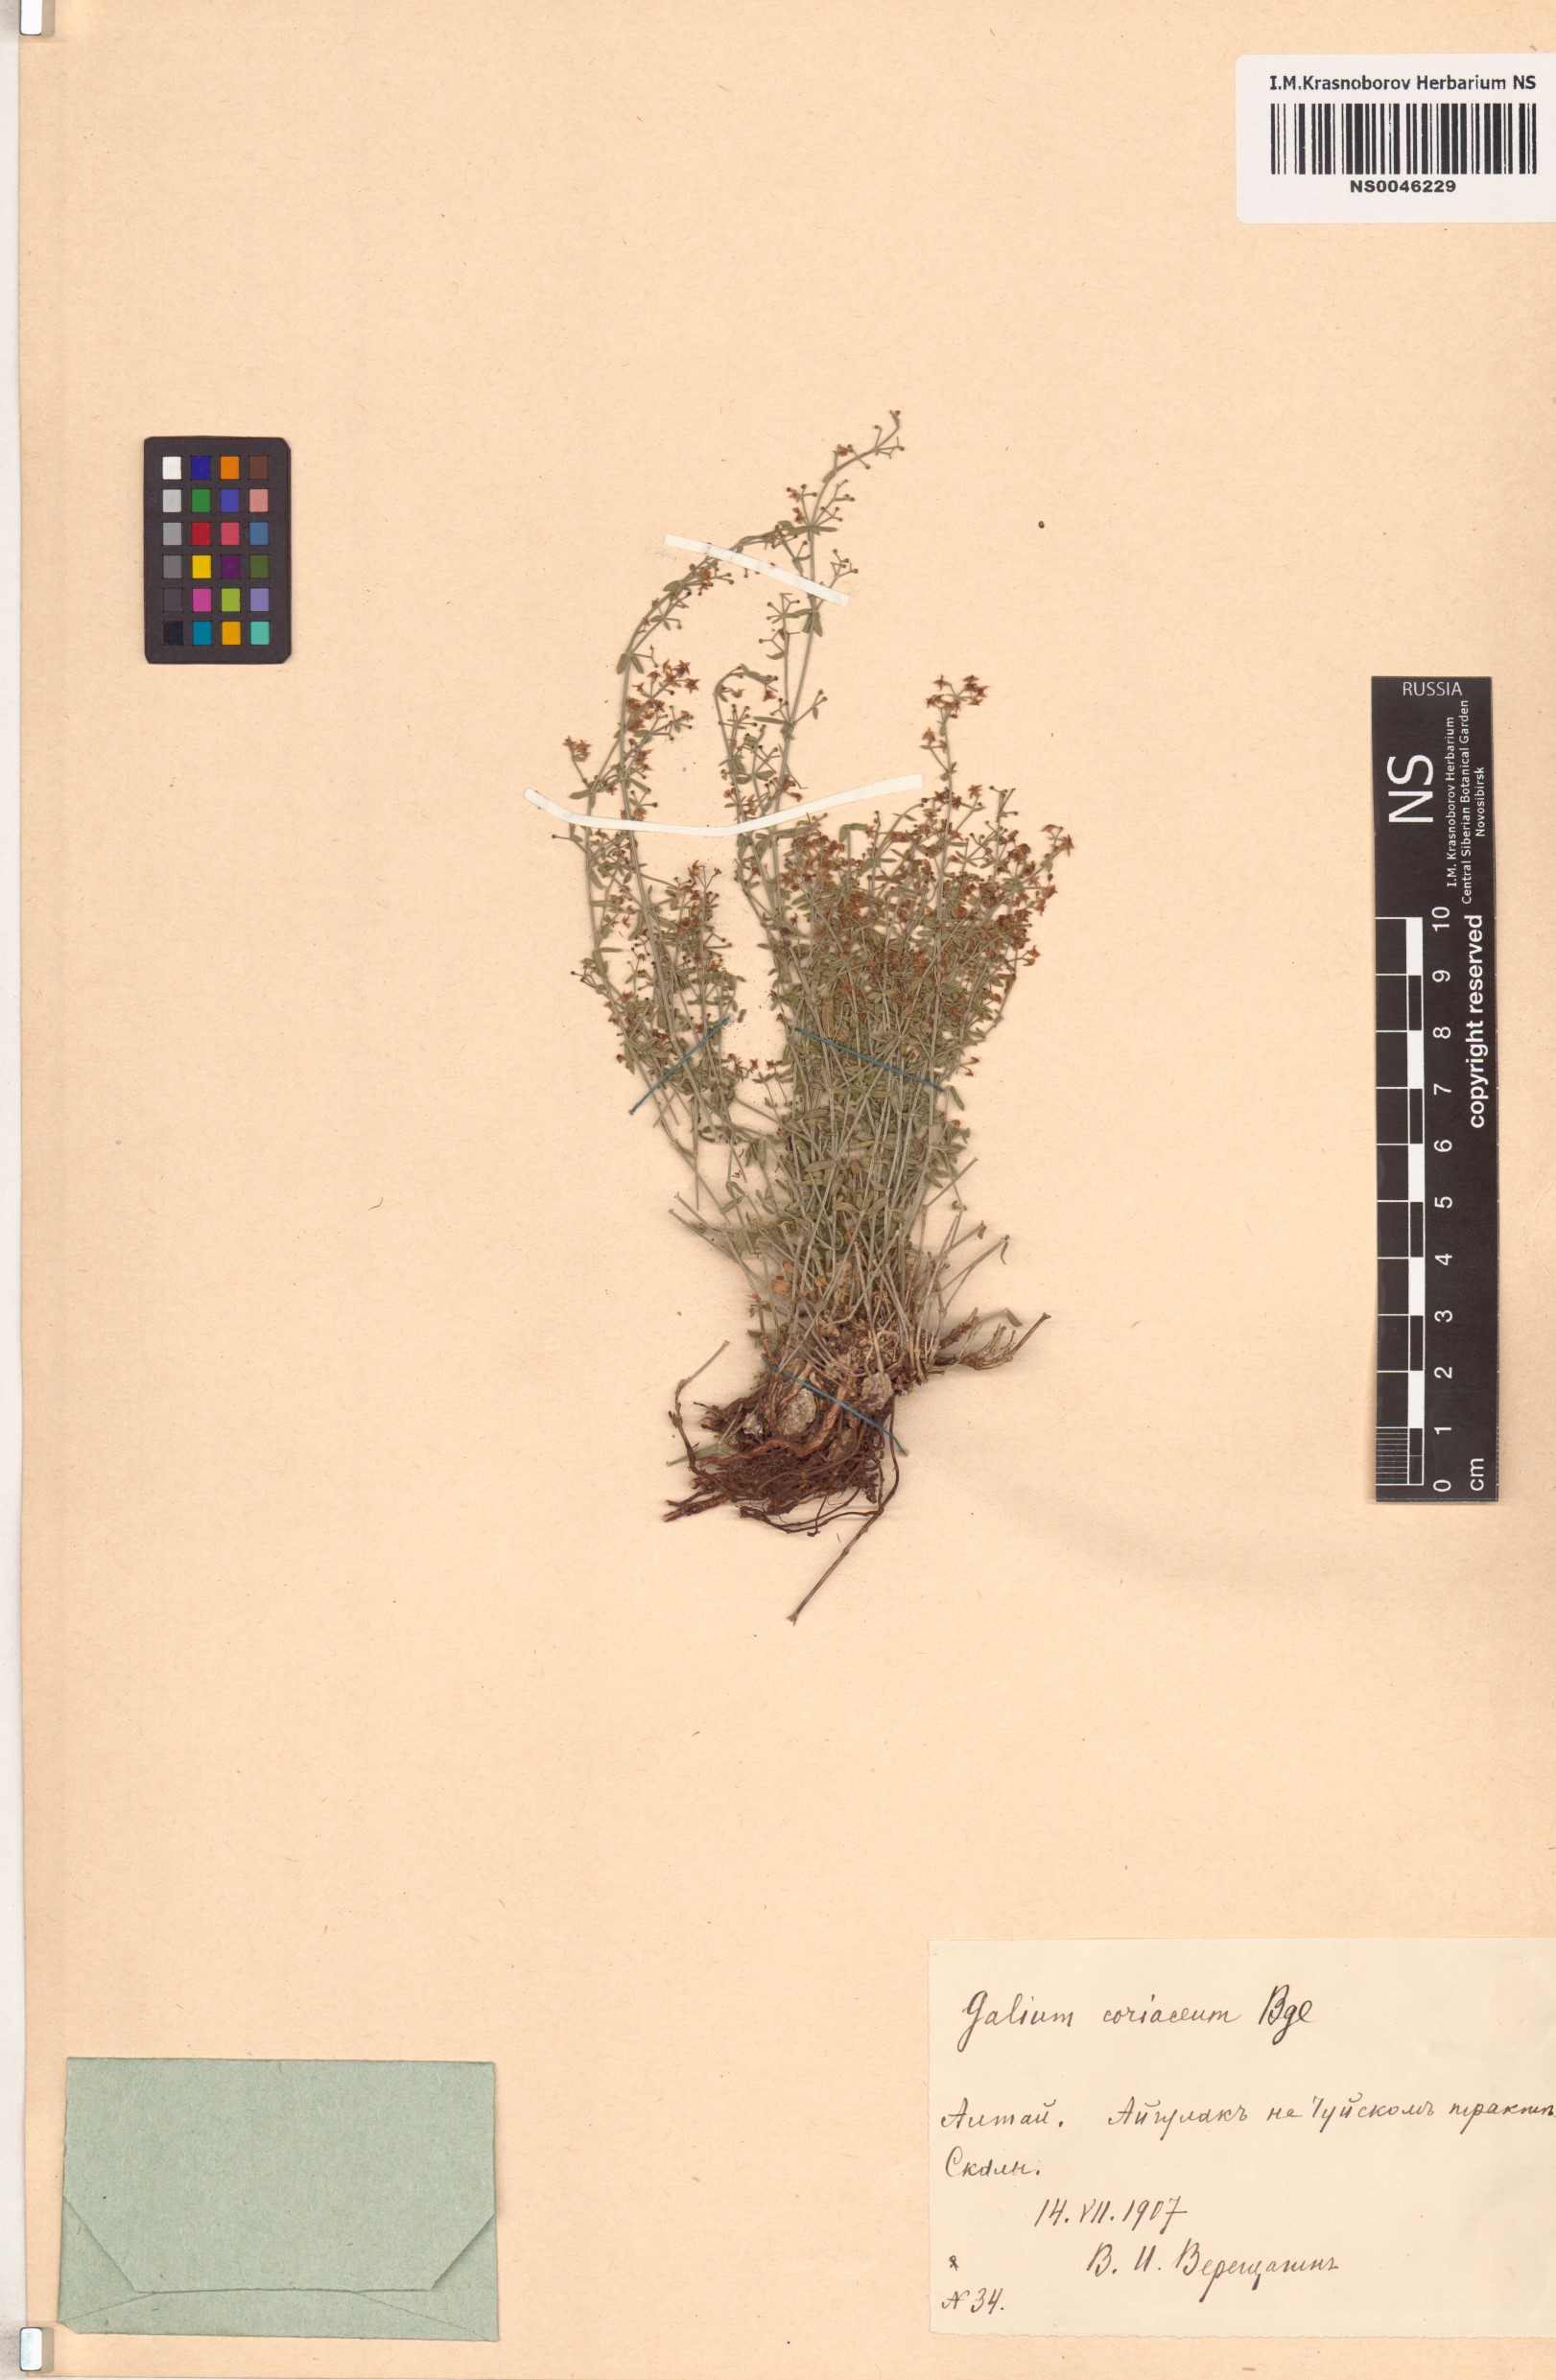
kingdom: Plantae
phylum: Tracheophyta
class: Magnoliopsida
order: Gentianales
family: Rubiaceae
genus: Galium
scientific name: Galium coriaceum
